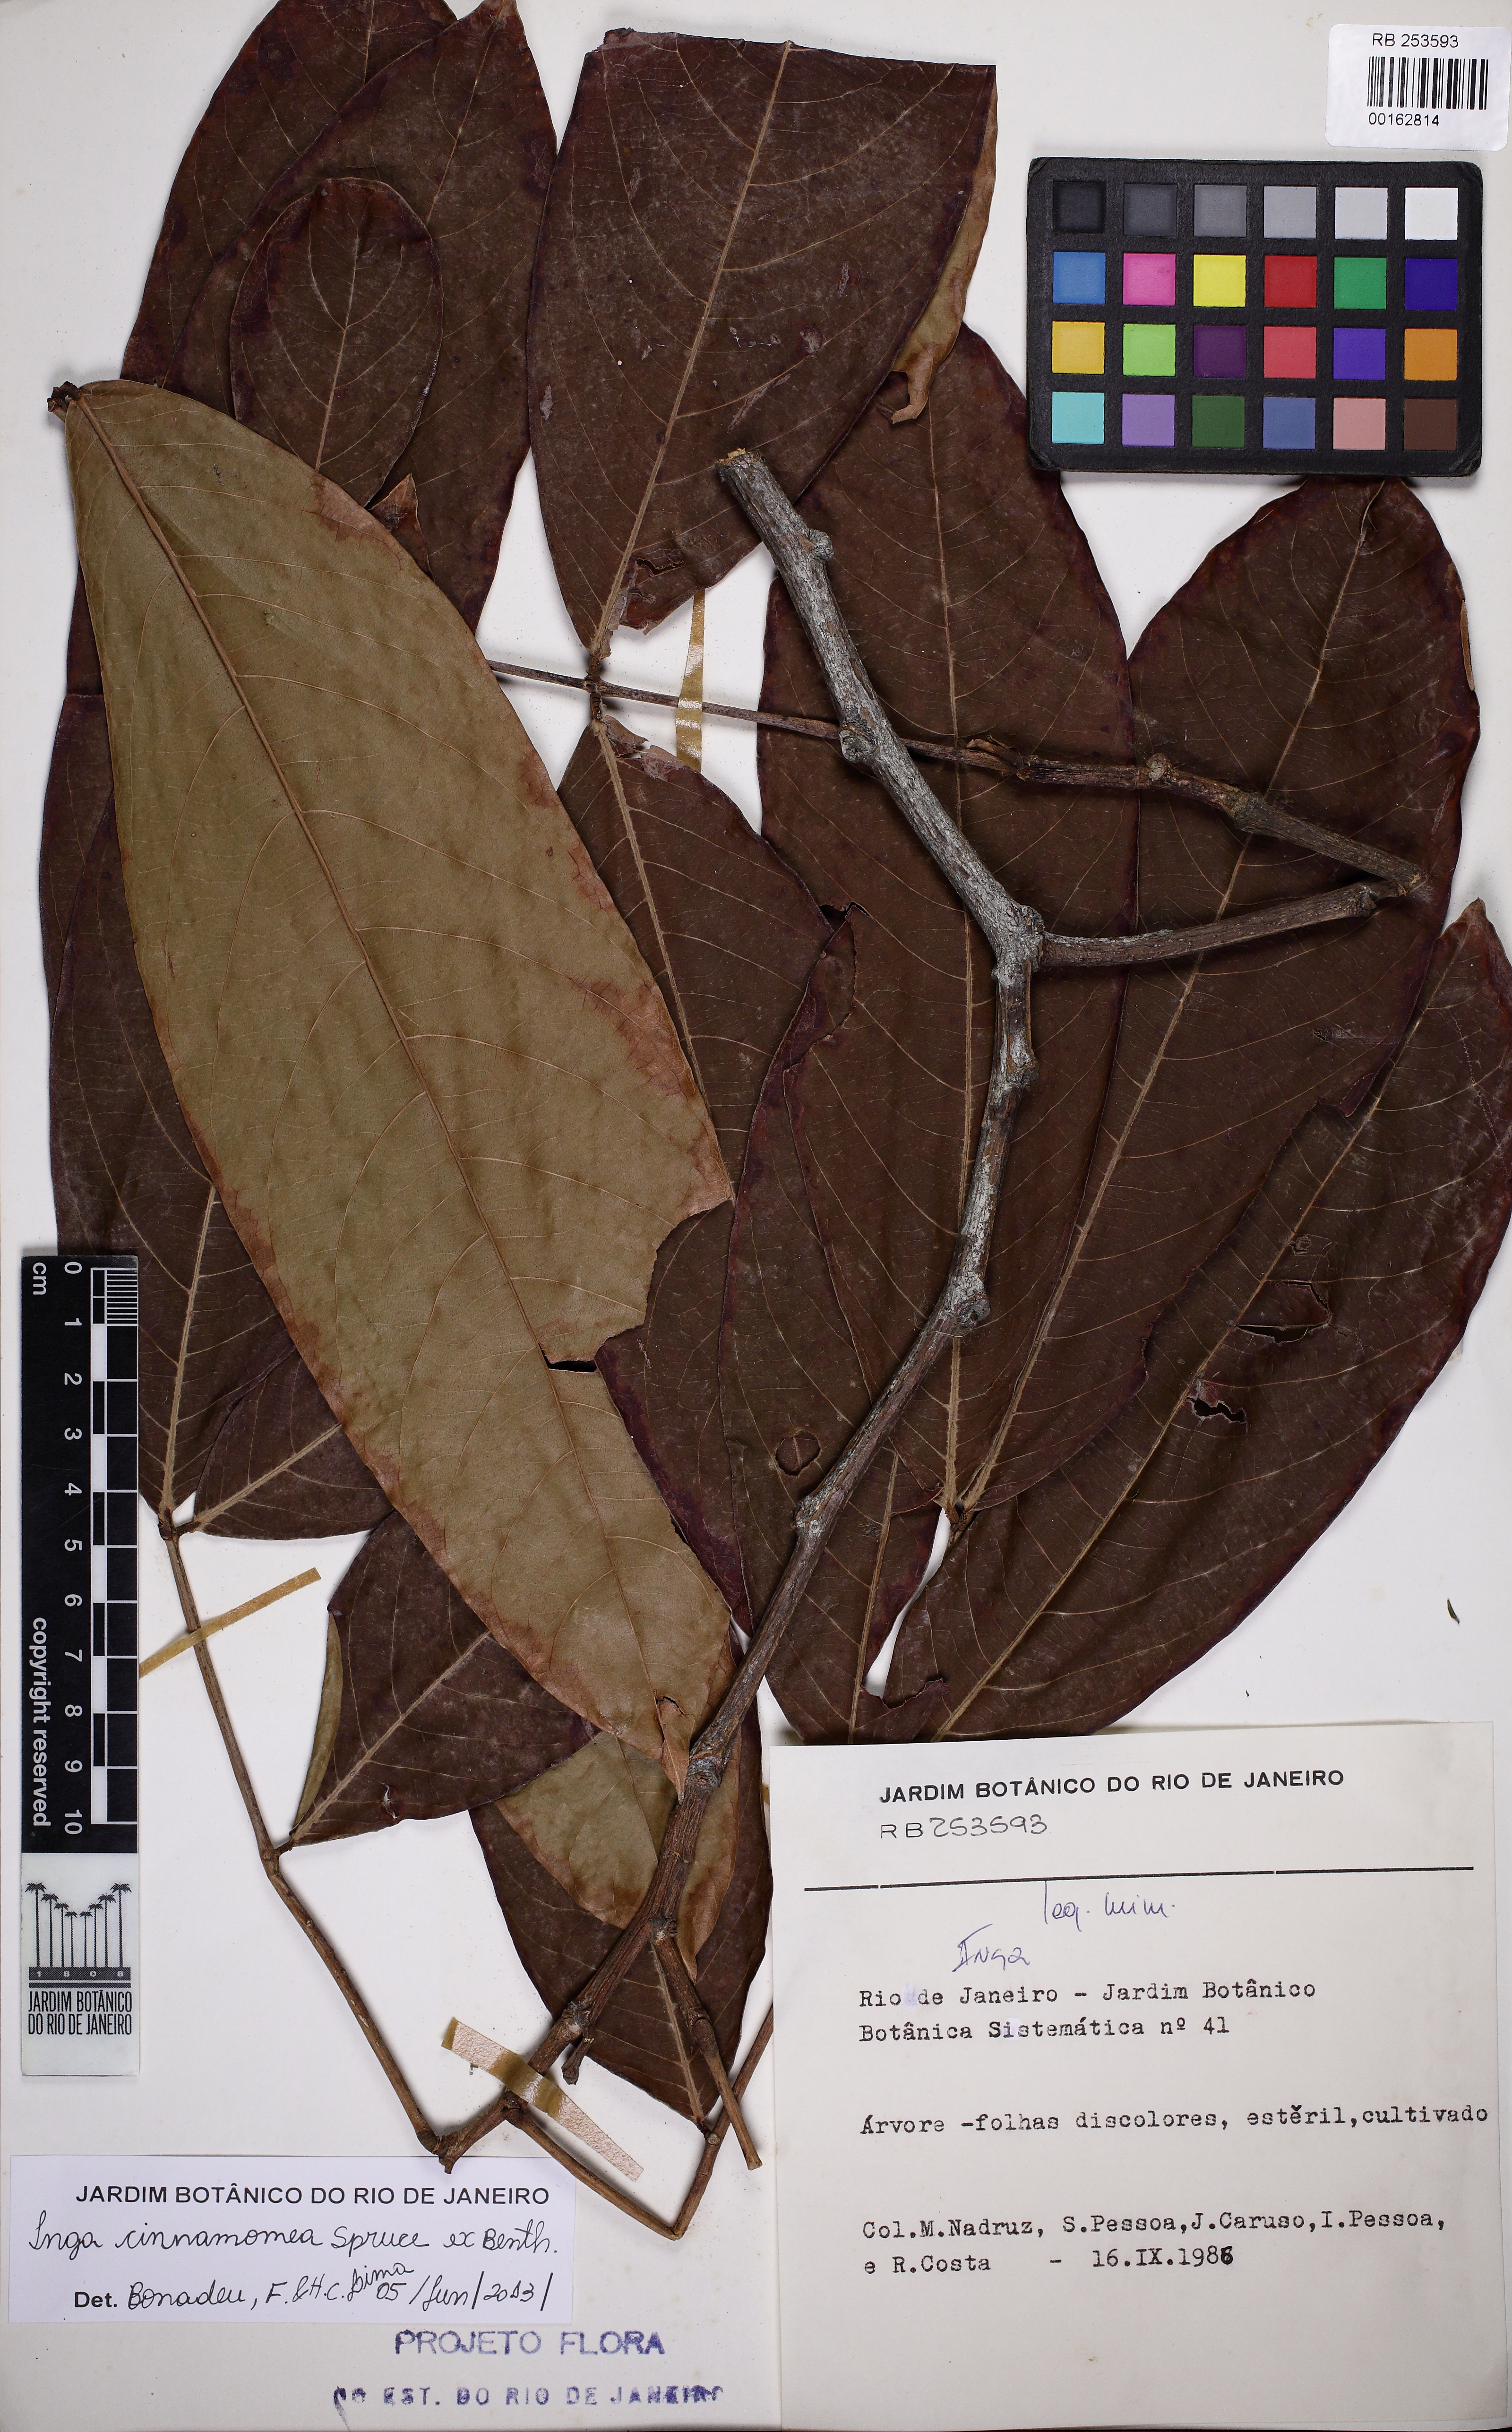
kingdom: Plantae
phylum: Tracheophyta
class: Magnoliopsida
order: Fabales
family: Fabaceae
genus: Inga
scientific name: Inga cinnamomea
